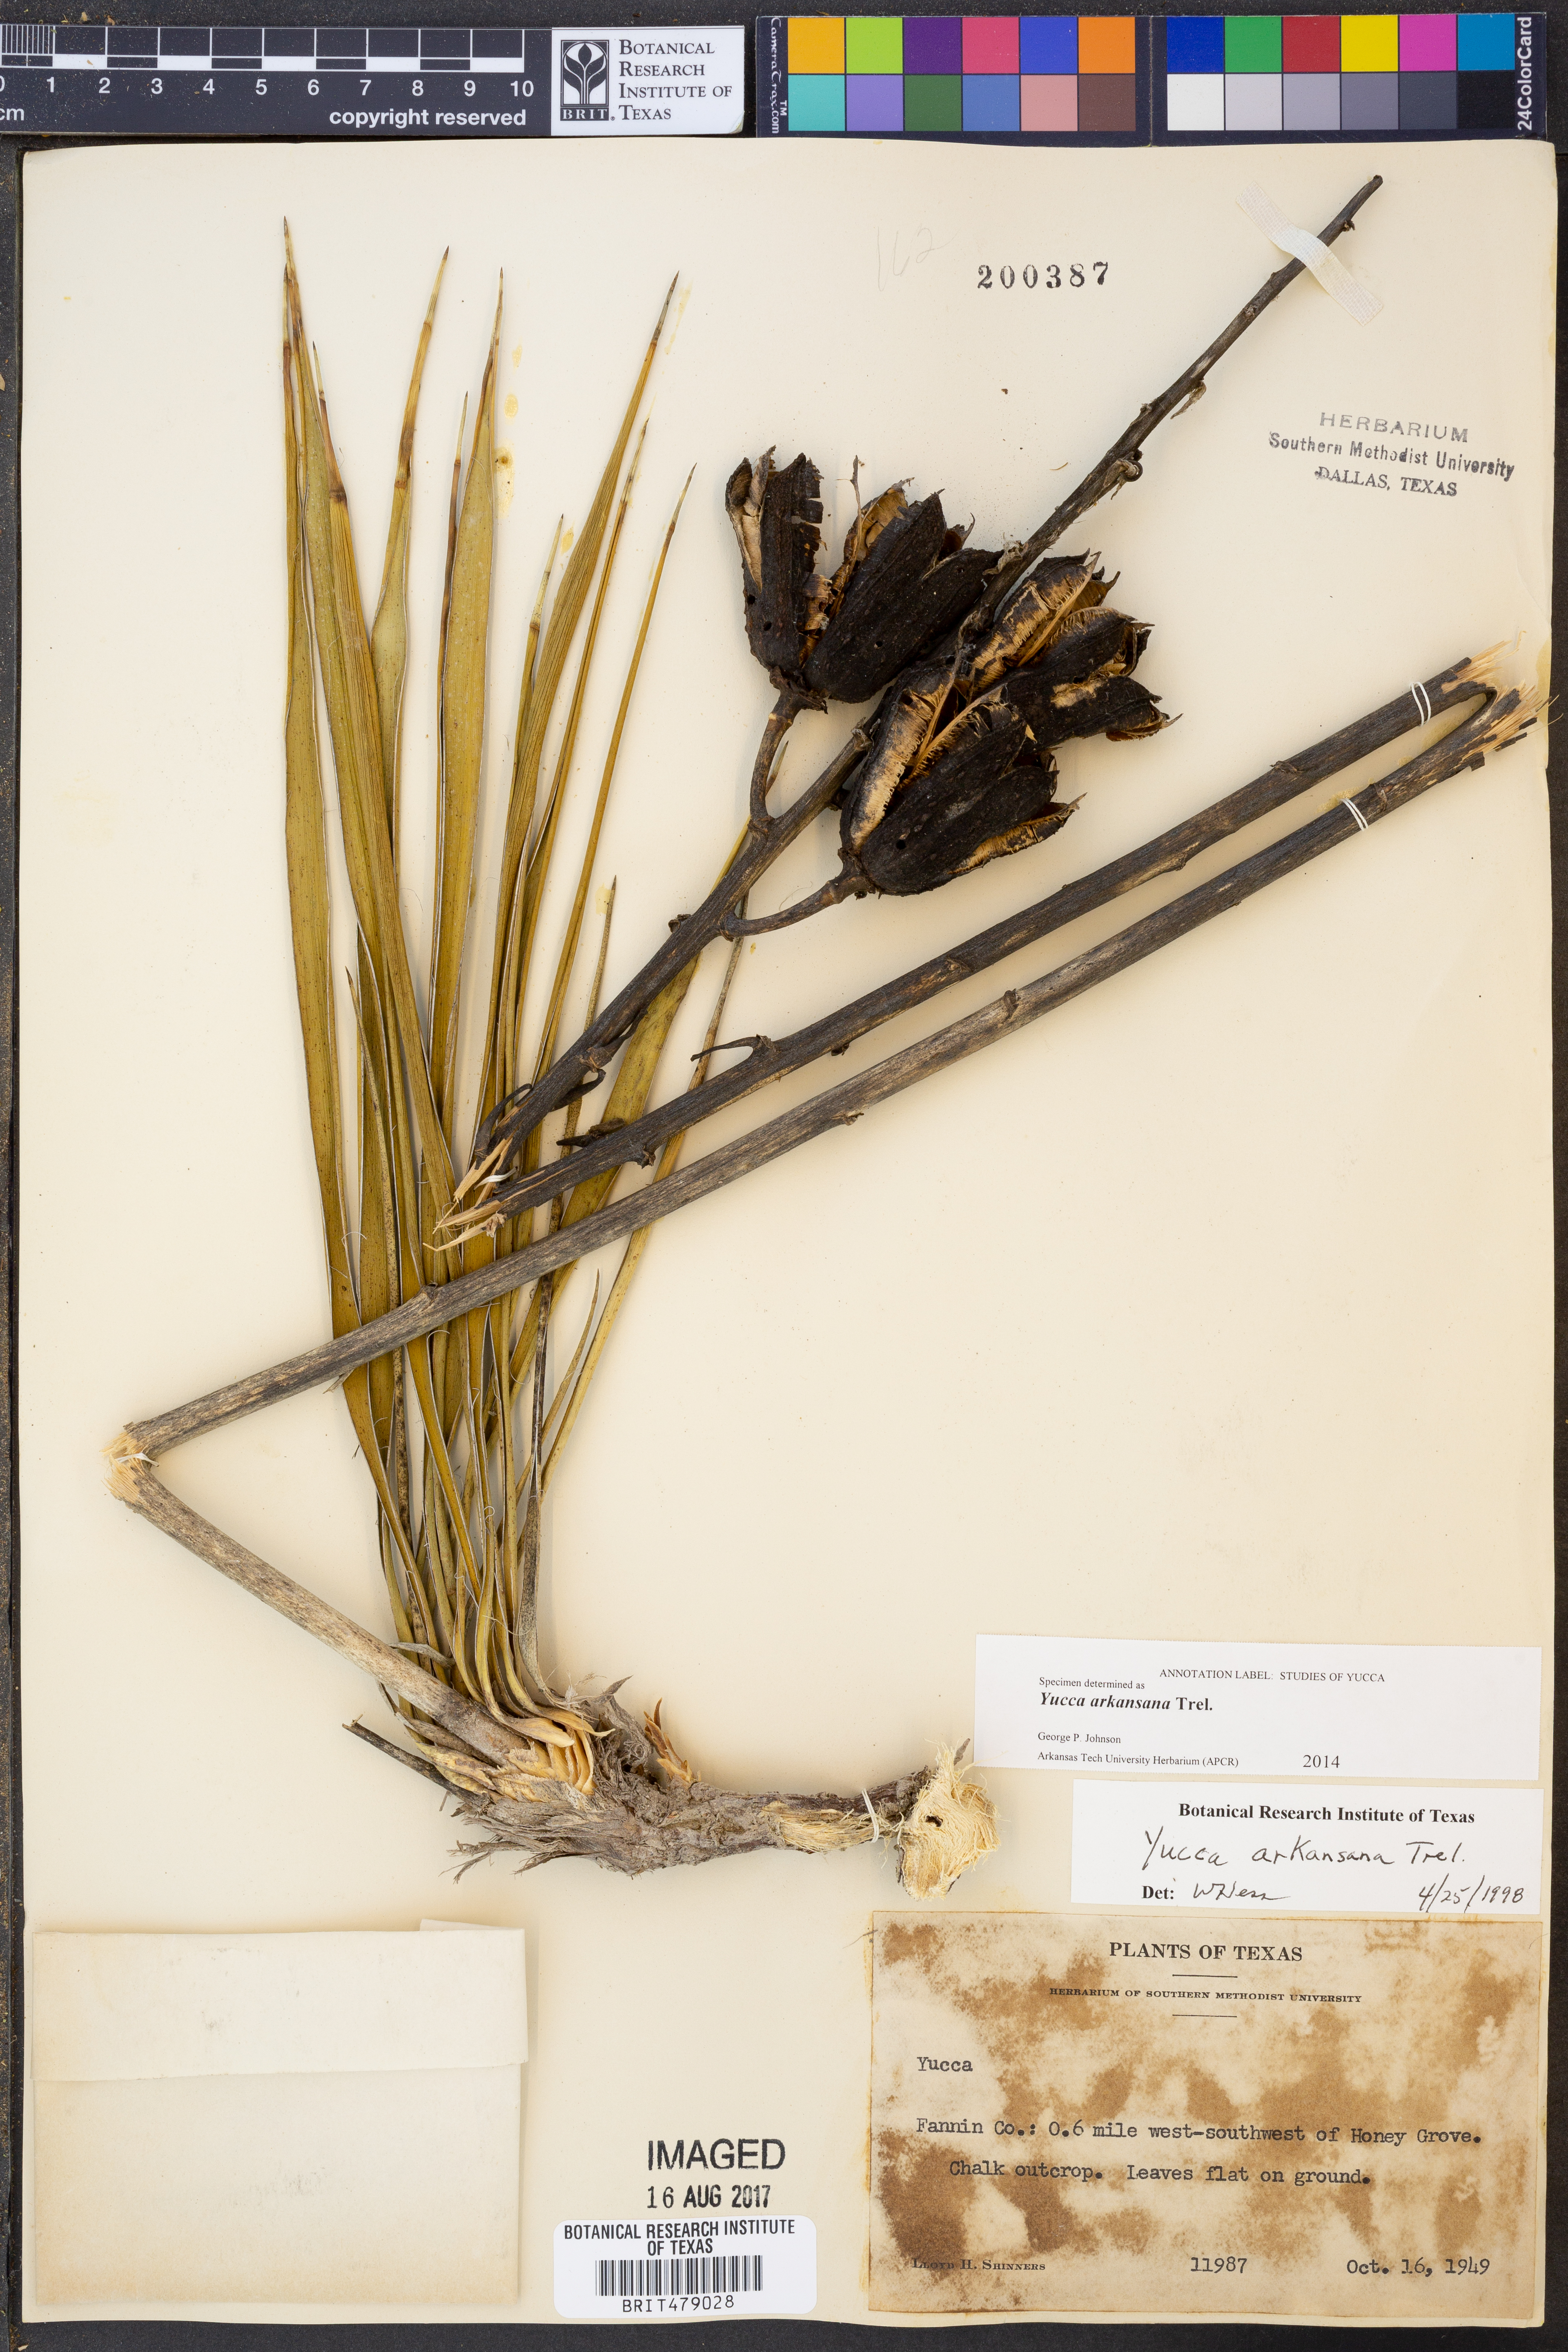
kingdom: Plantae
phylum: Tracheophyta
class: Liliopsida
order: Asparagales
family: Asparagaceae
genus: Yucca
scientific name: Yucca arkansana
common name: Arkansas yucca
